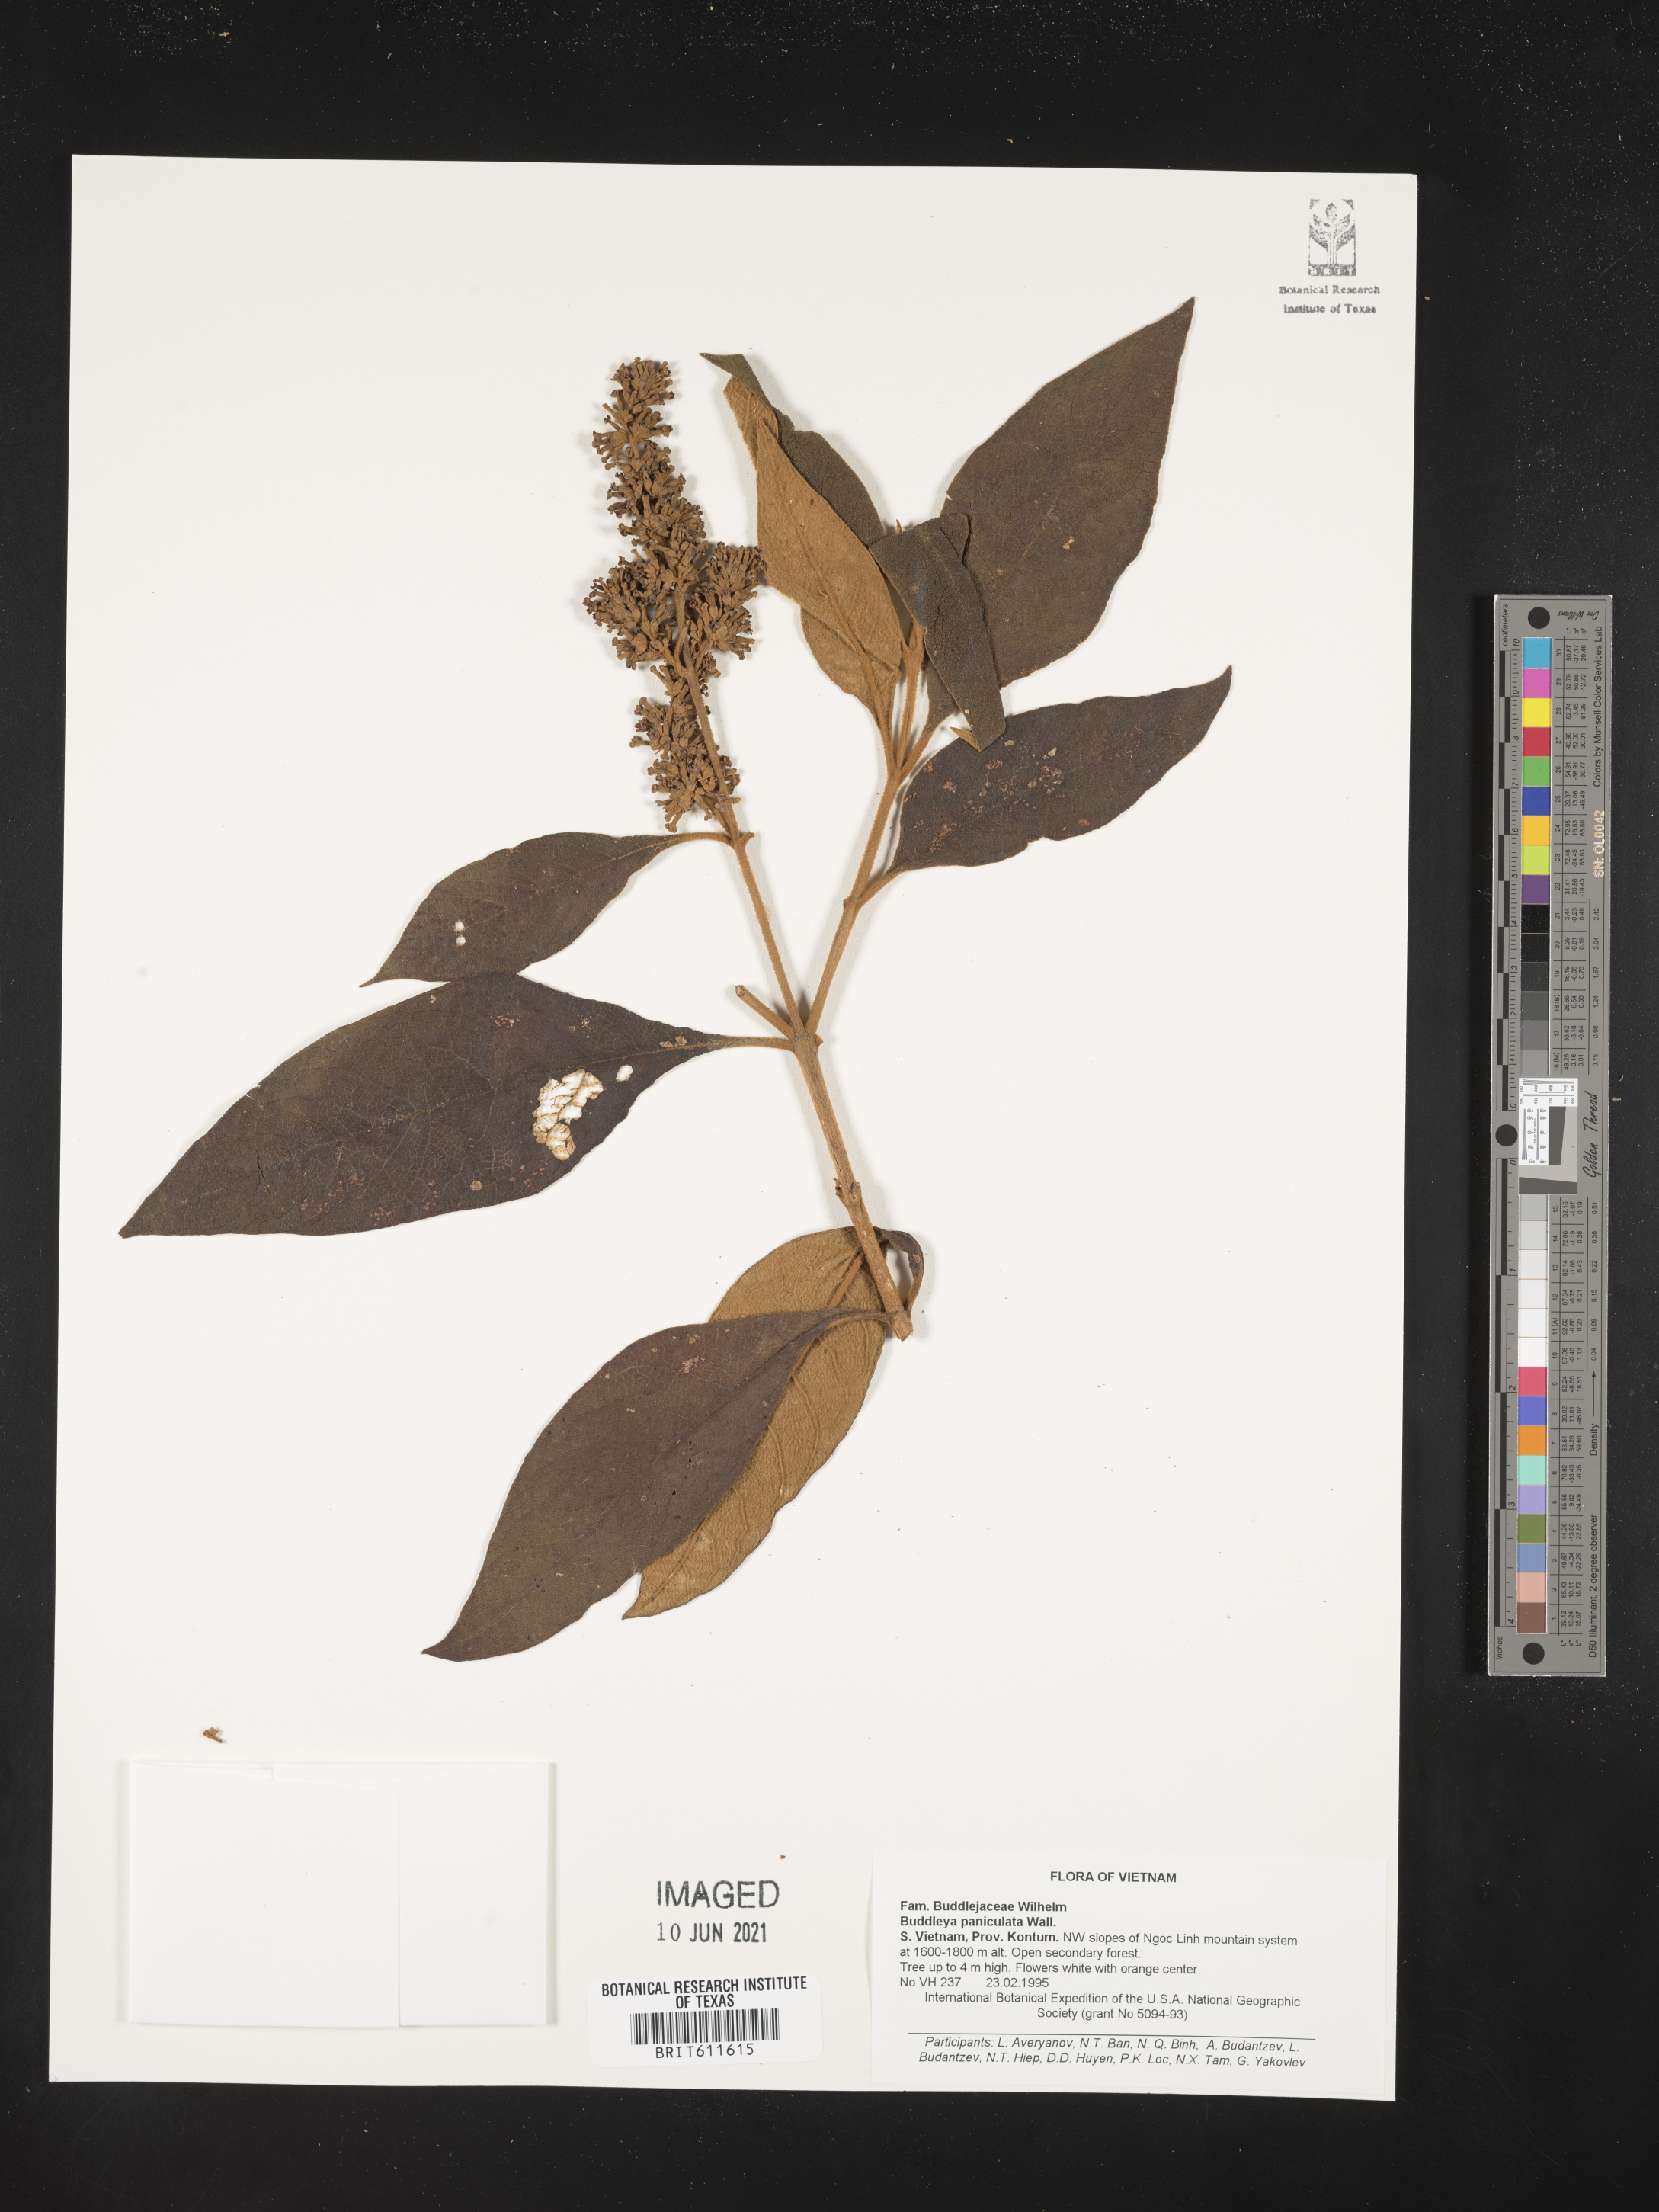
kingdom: Plantae
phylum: Tracheophyta
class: Magnoliopsida
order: Lamiales
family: Scrophulariaceae
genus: Buddleja
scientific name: Buddleja paniculata
